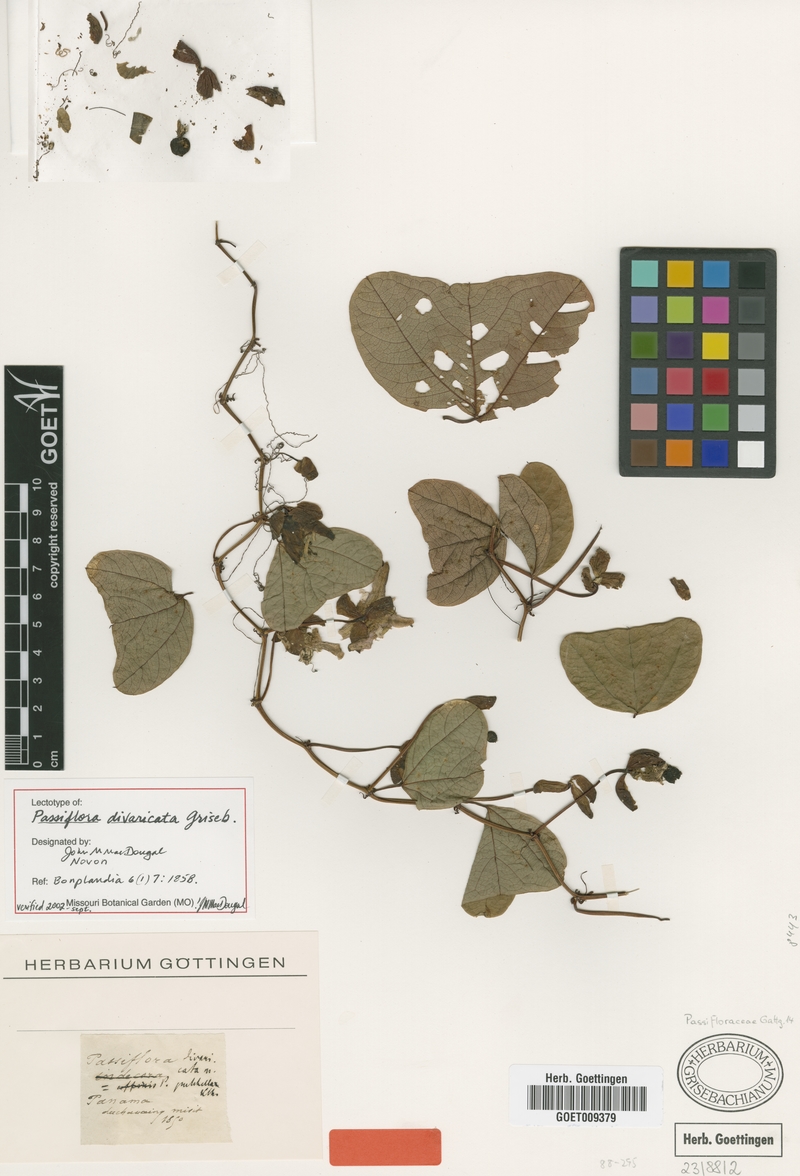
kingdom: Plantae
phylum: Tracheophyta
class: Magnoliopsida
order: Malpighiales
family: Passifloraceae
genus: Passiflora
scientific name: Passiflora bicornis
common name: Wingleaf passionflower
